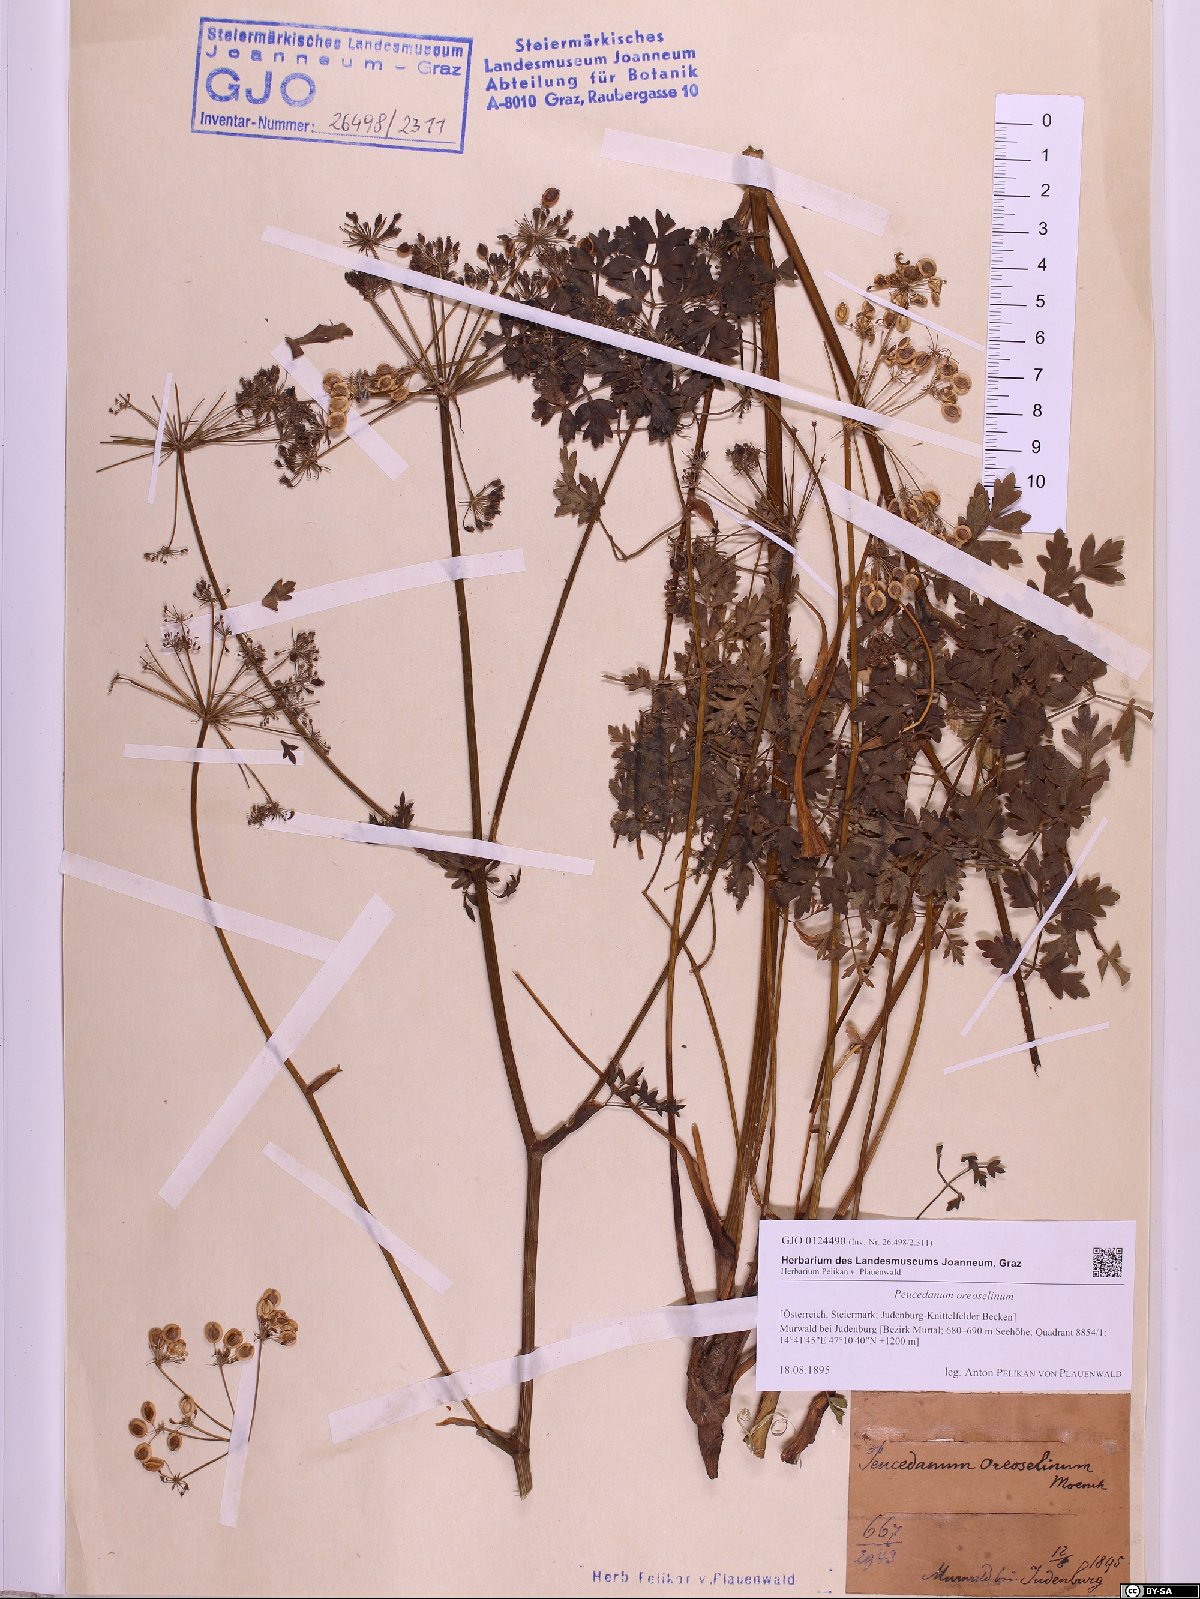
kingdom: Plantae
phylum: Tracheophyta
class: Magnoliopsida
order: Apiales
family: Apiaceae
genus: Oreoselinum
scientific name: Oreoselinum nigrum
